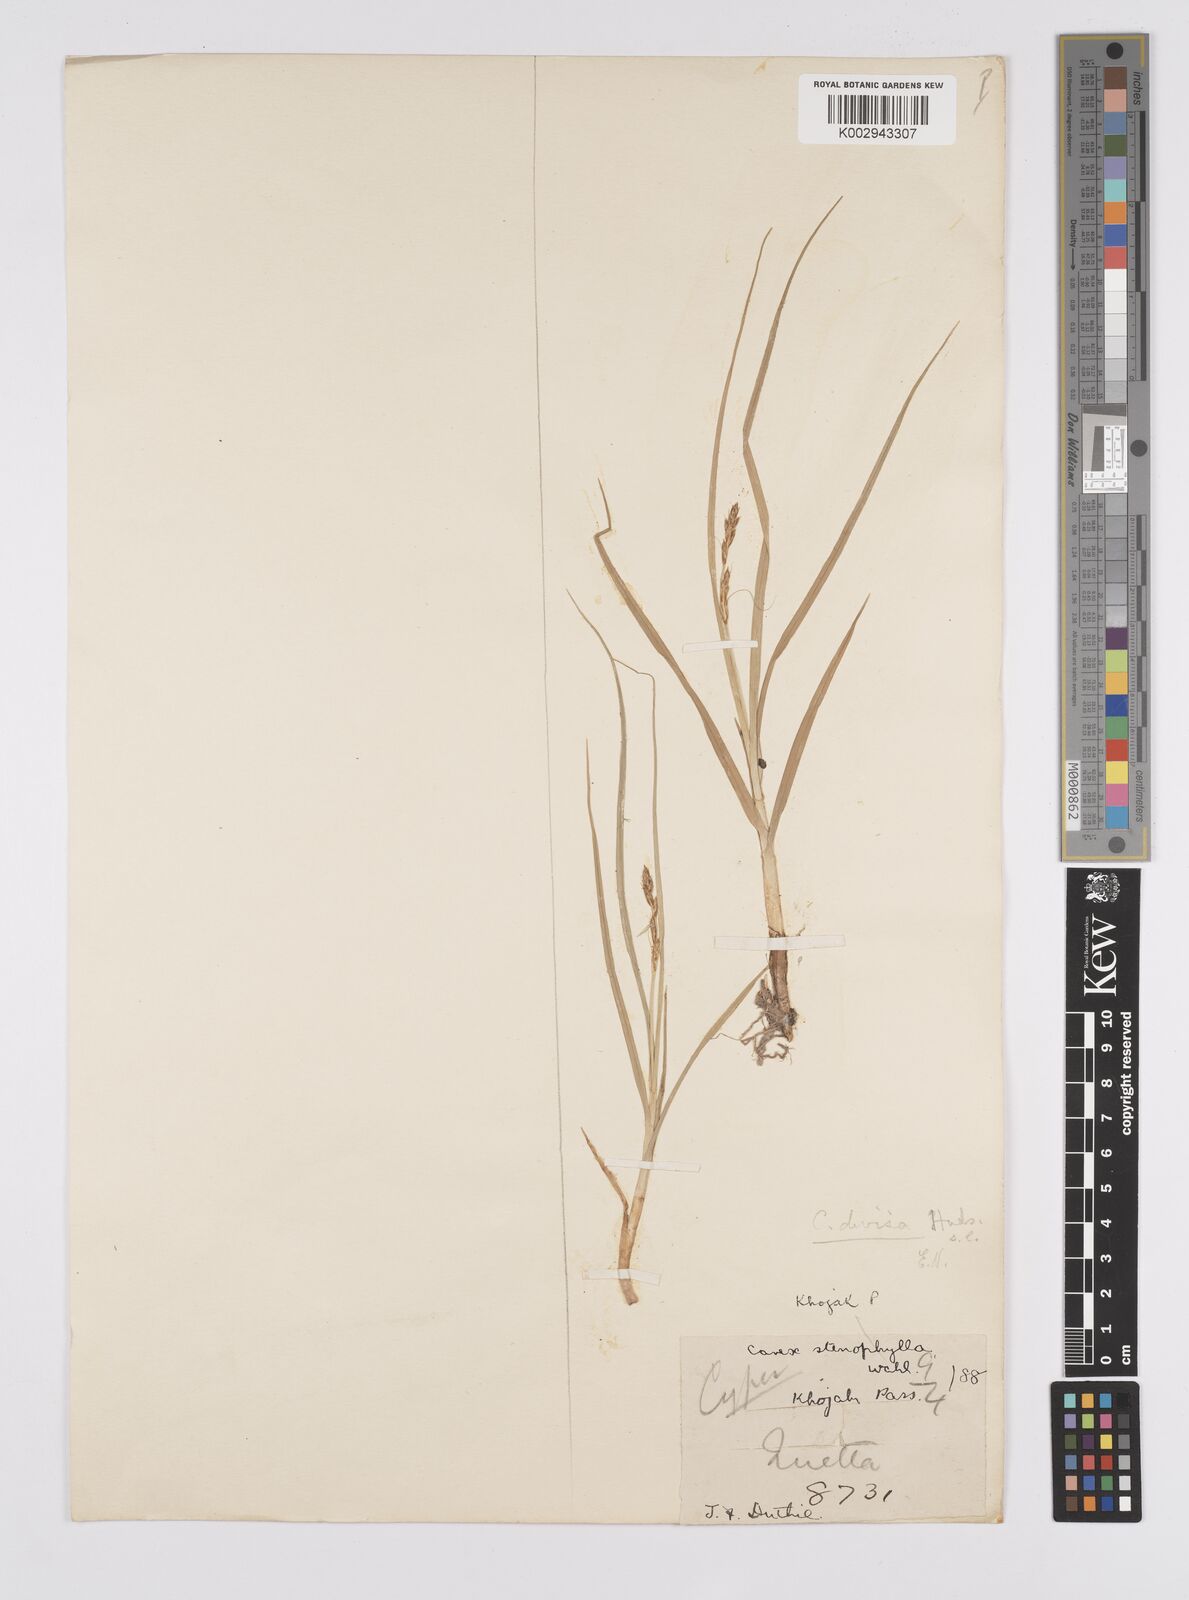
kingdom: Plantae
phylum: Tracheophyta
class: Liliopsida
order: Poales
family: Cyperaceae
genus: Carex
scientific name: Carex divisa
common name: Divided sedge
